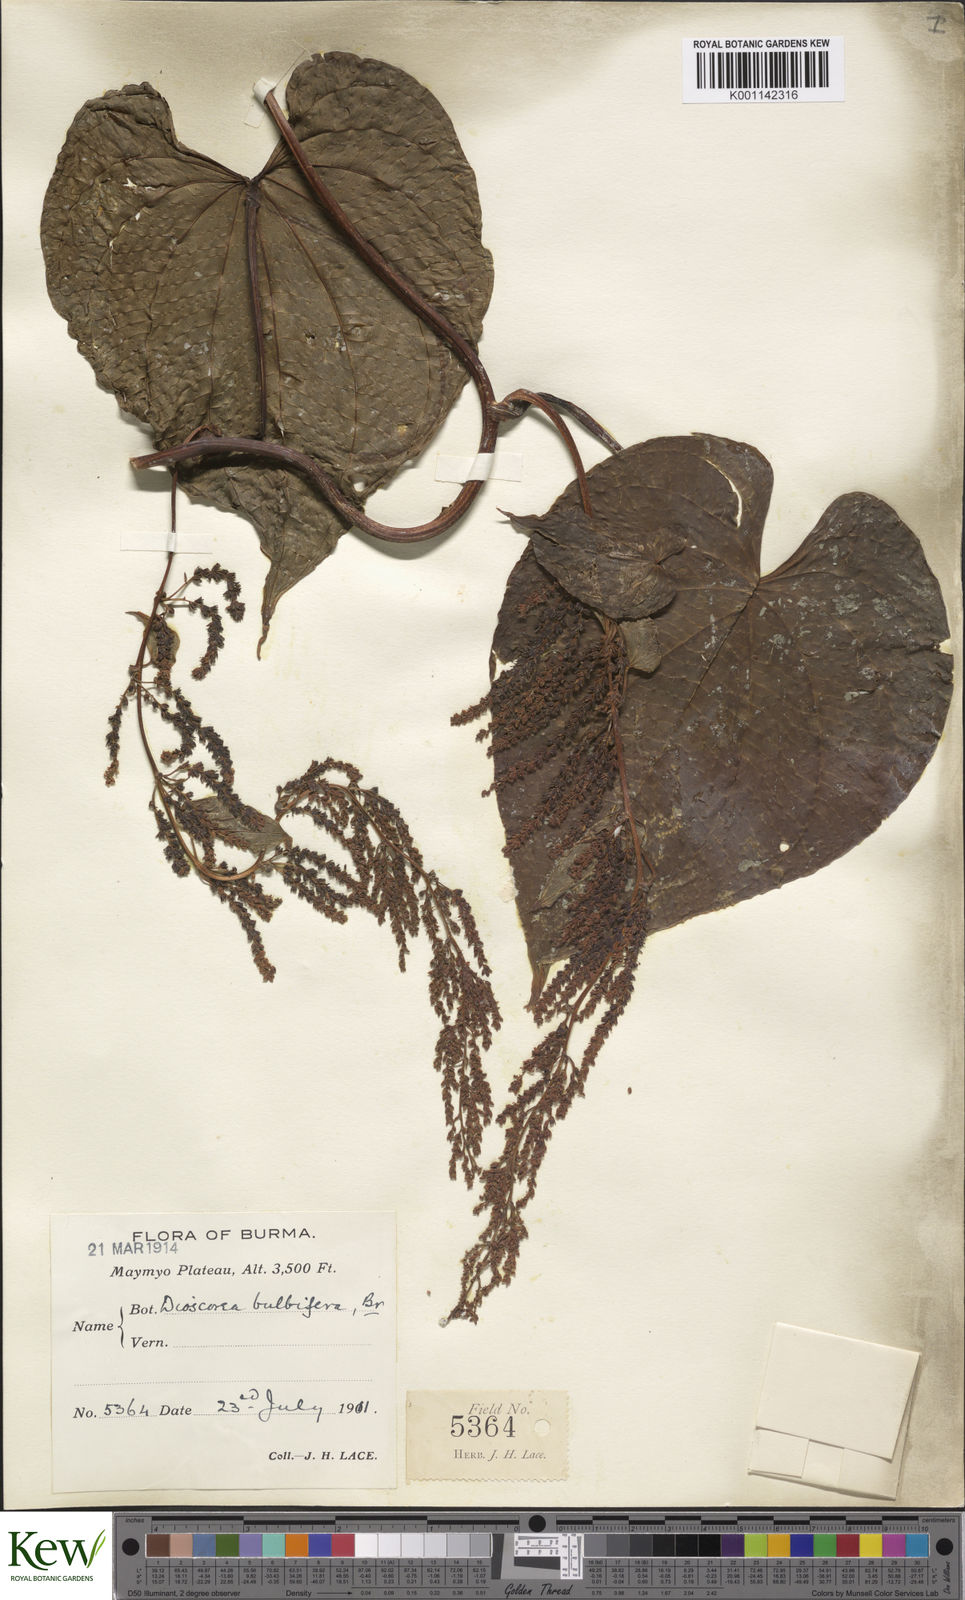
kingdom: Plantae
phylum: Tracheophyta
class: Liliopsida
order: Dioscoreales
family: Dioscoreaceae
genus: Dioscorea
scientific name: Dioscorea bulbifera
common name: Air yam
